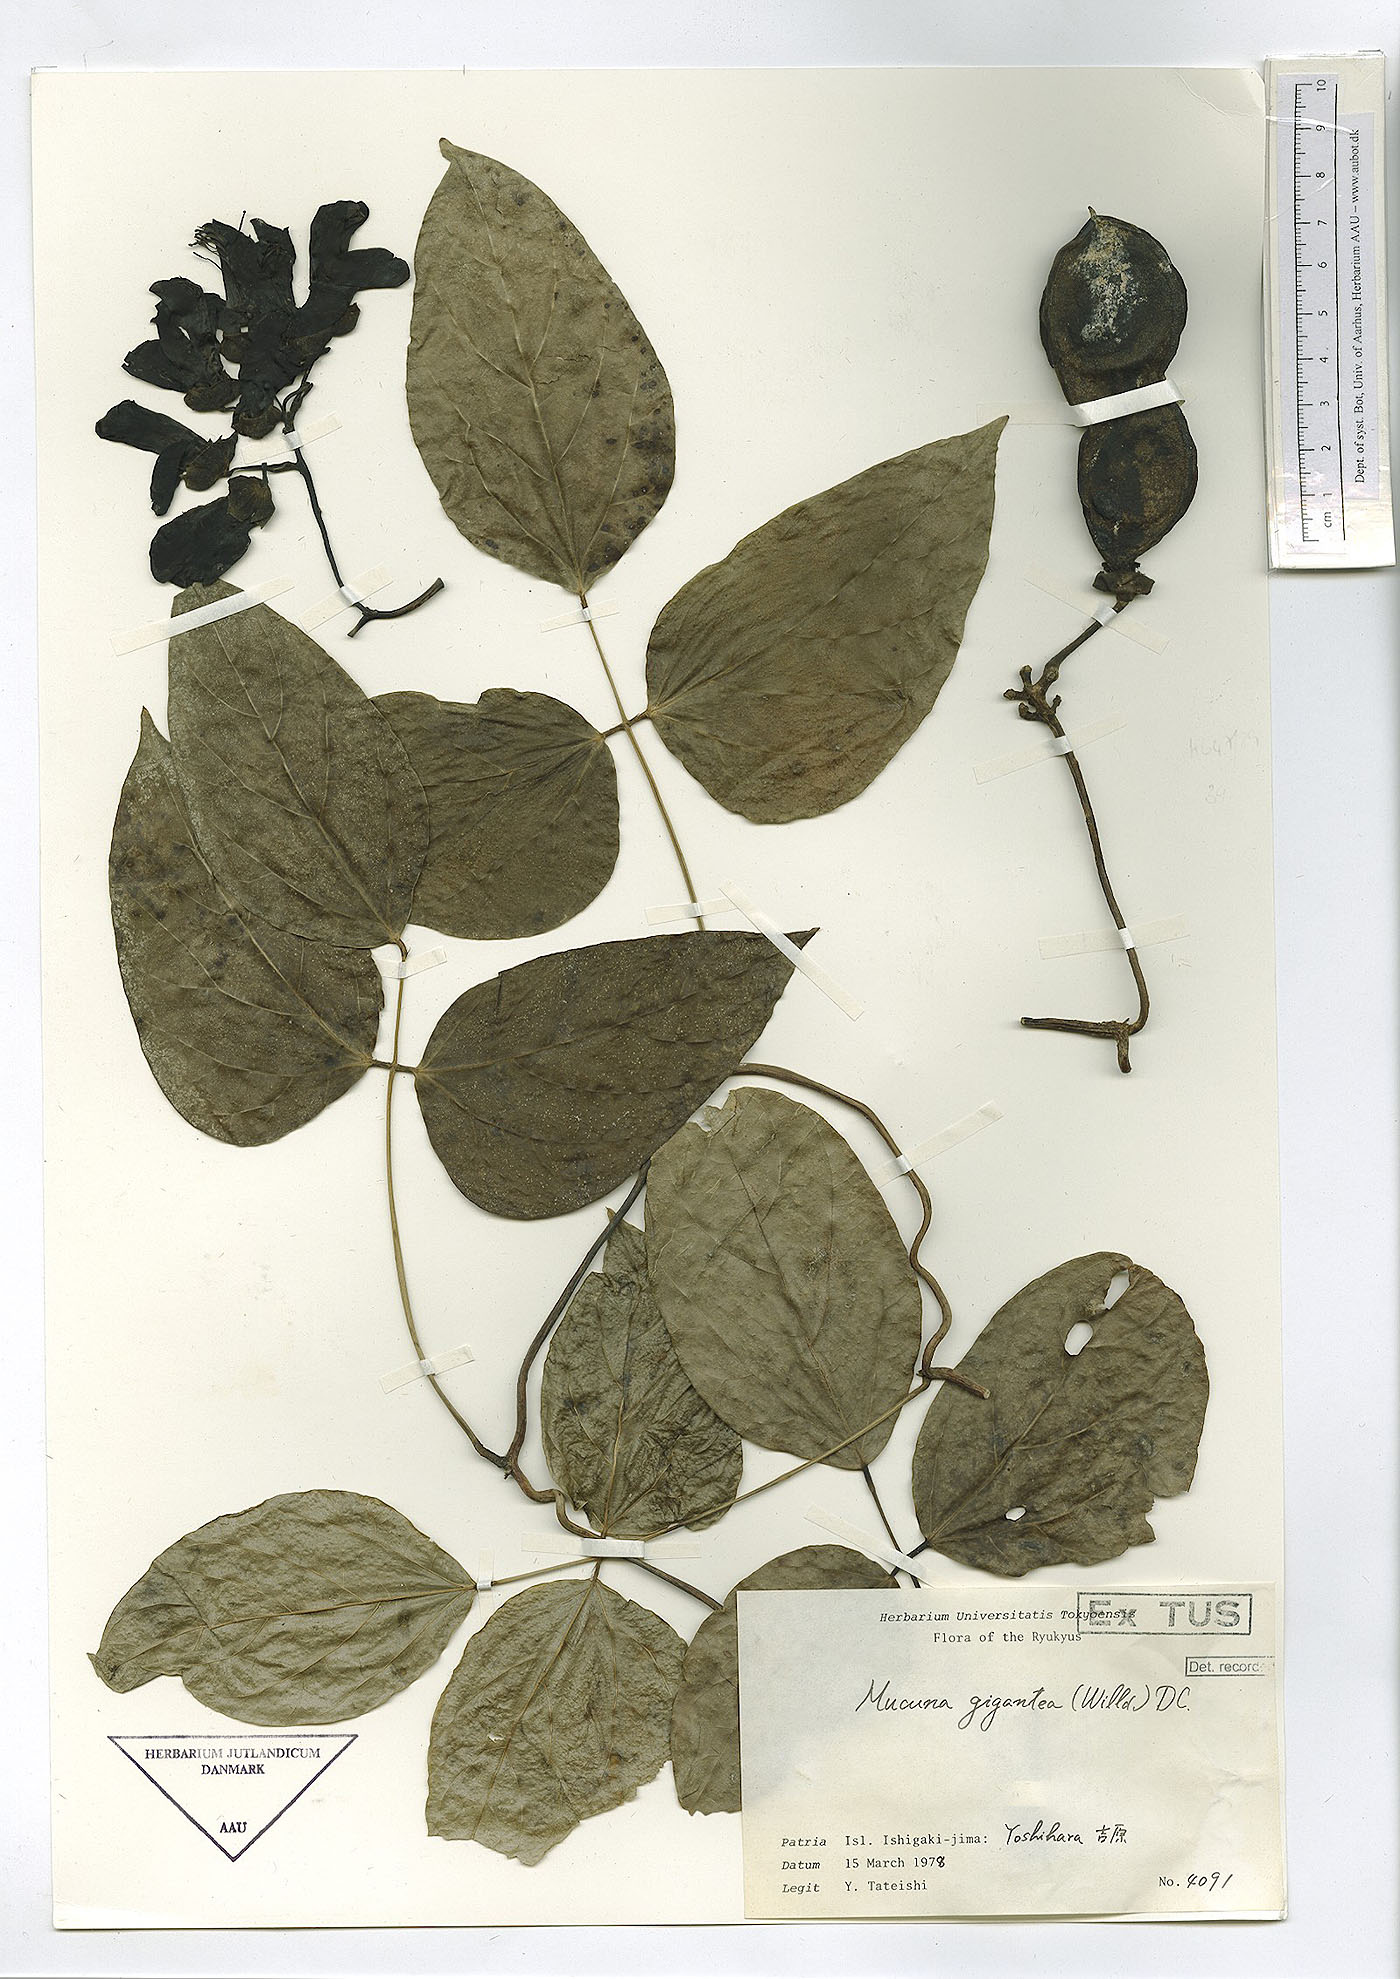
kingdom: Plantae
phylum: Tracheophyta
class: Magnoliopsida
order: Fabales
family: Fabaceae
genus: Mucuna
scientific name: Mucuna gigantea
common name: Black-bean
